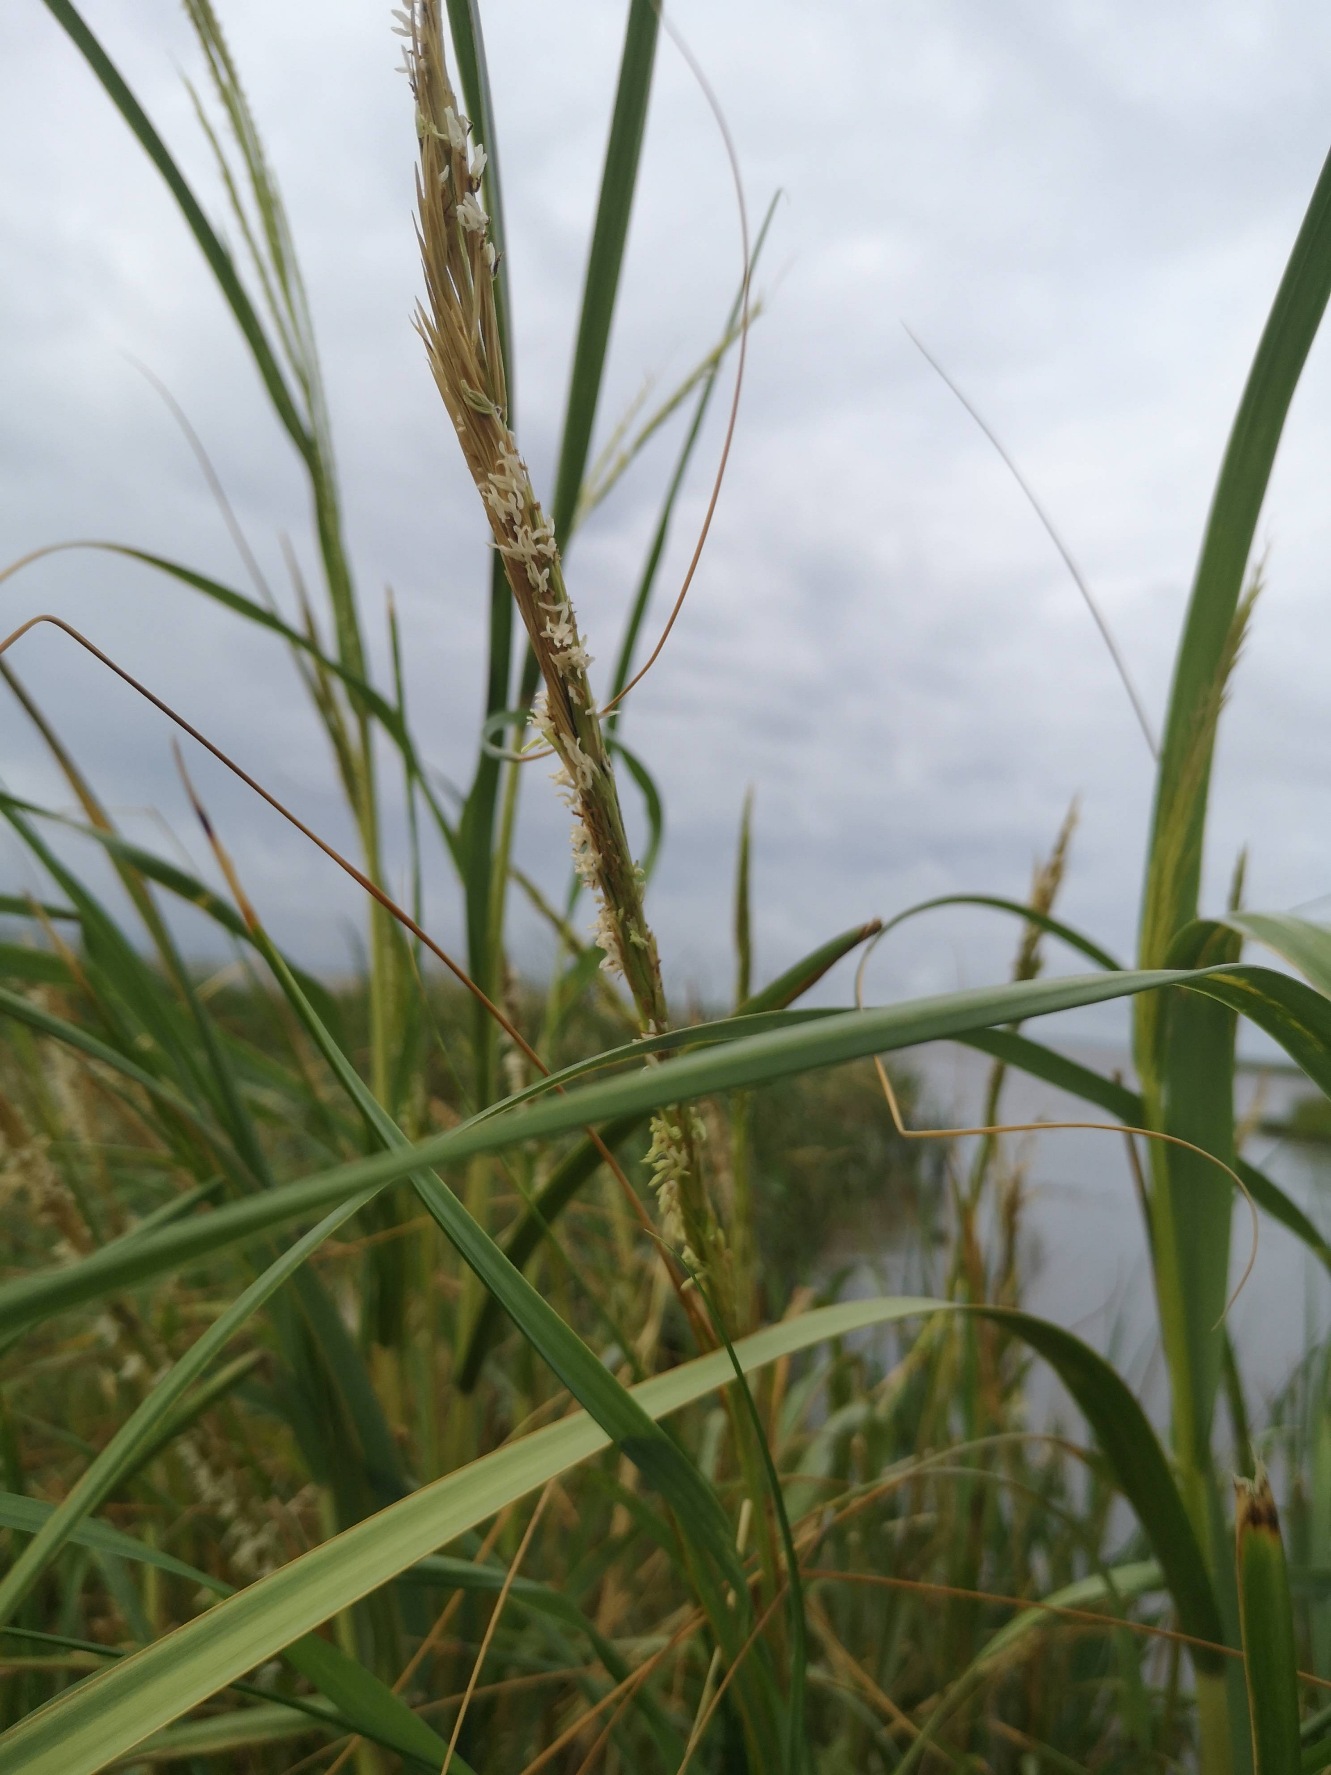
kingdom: Animalia
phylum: Mollusca
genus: Spartina
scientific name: Spartina
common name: Vadegræsslægten
